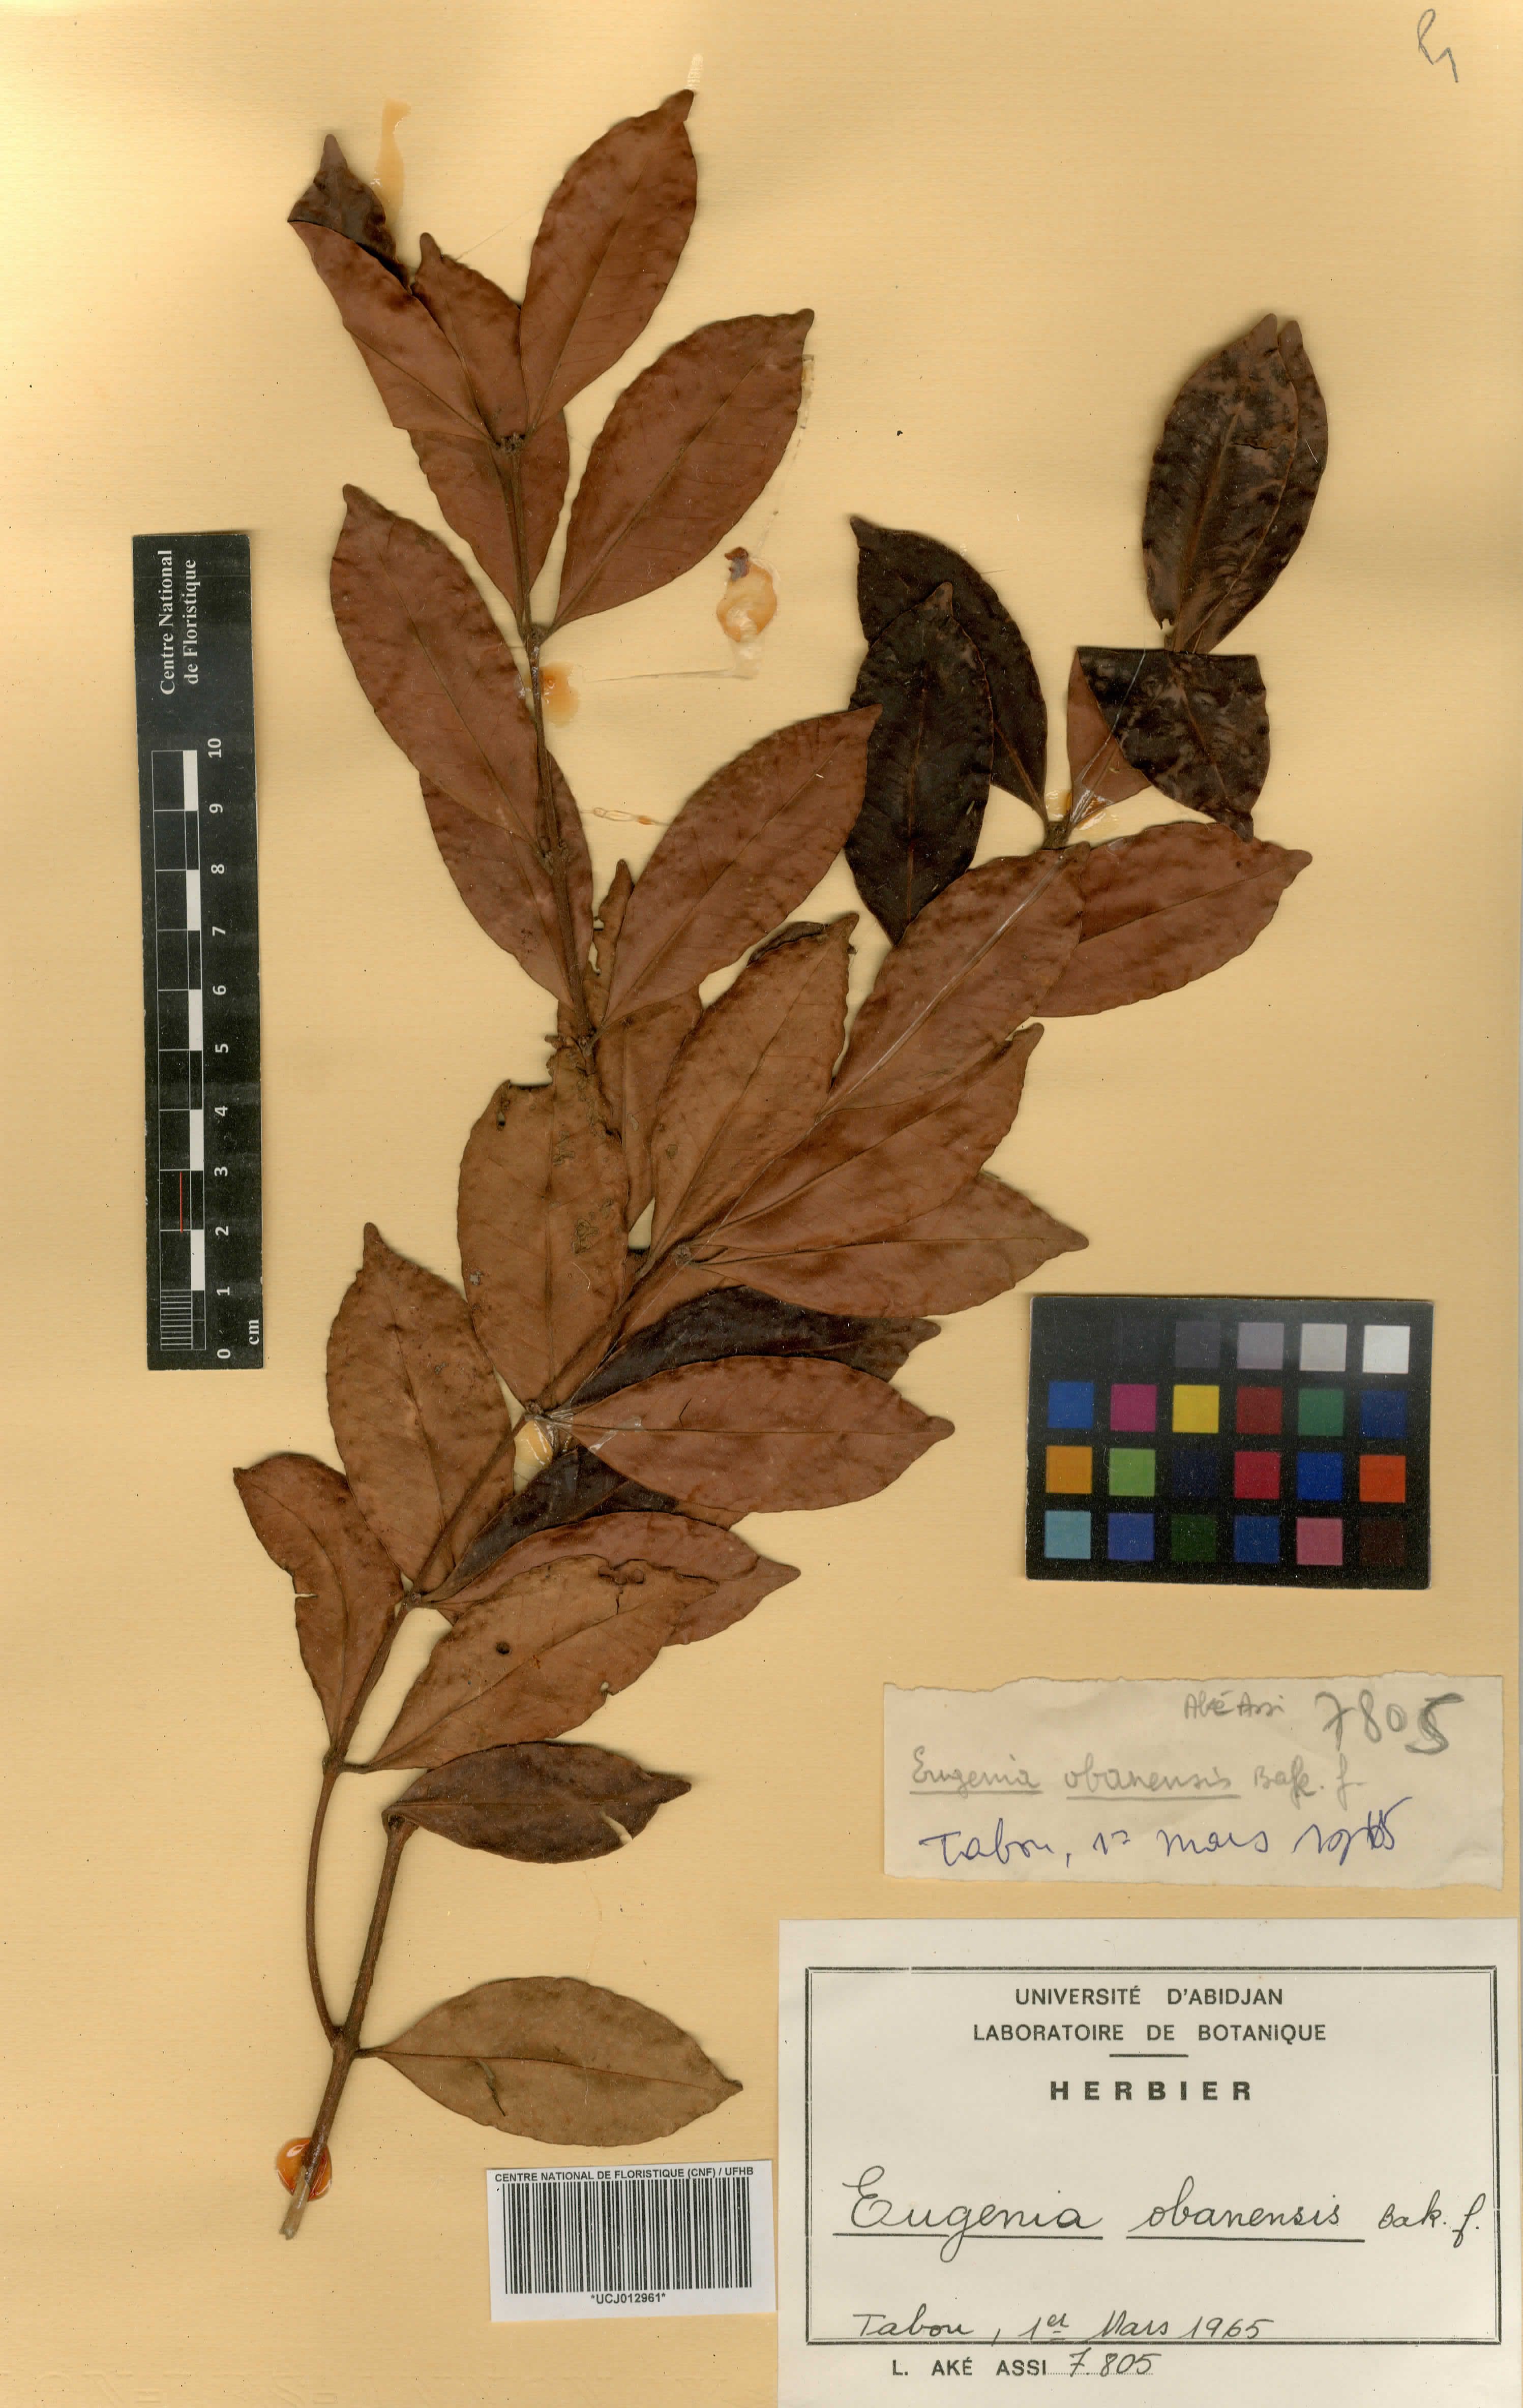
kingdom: Plantae
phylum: Tracheophyta
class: Magnoliopsida
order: Myrtales
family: Myrtaceae
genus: Eugenia
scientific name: Eugenia obanensis
